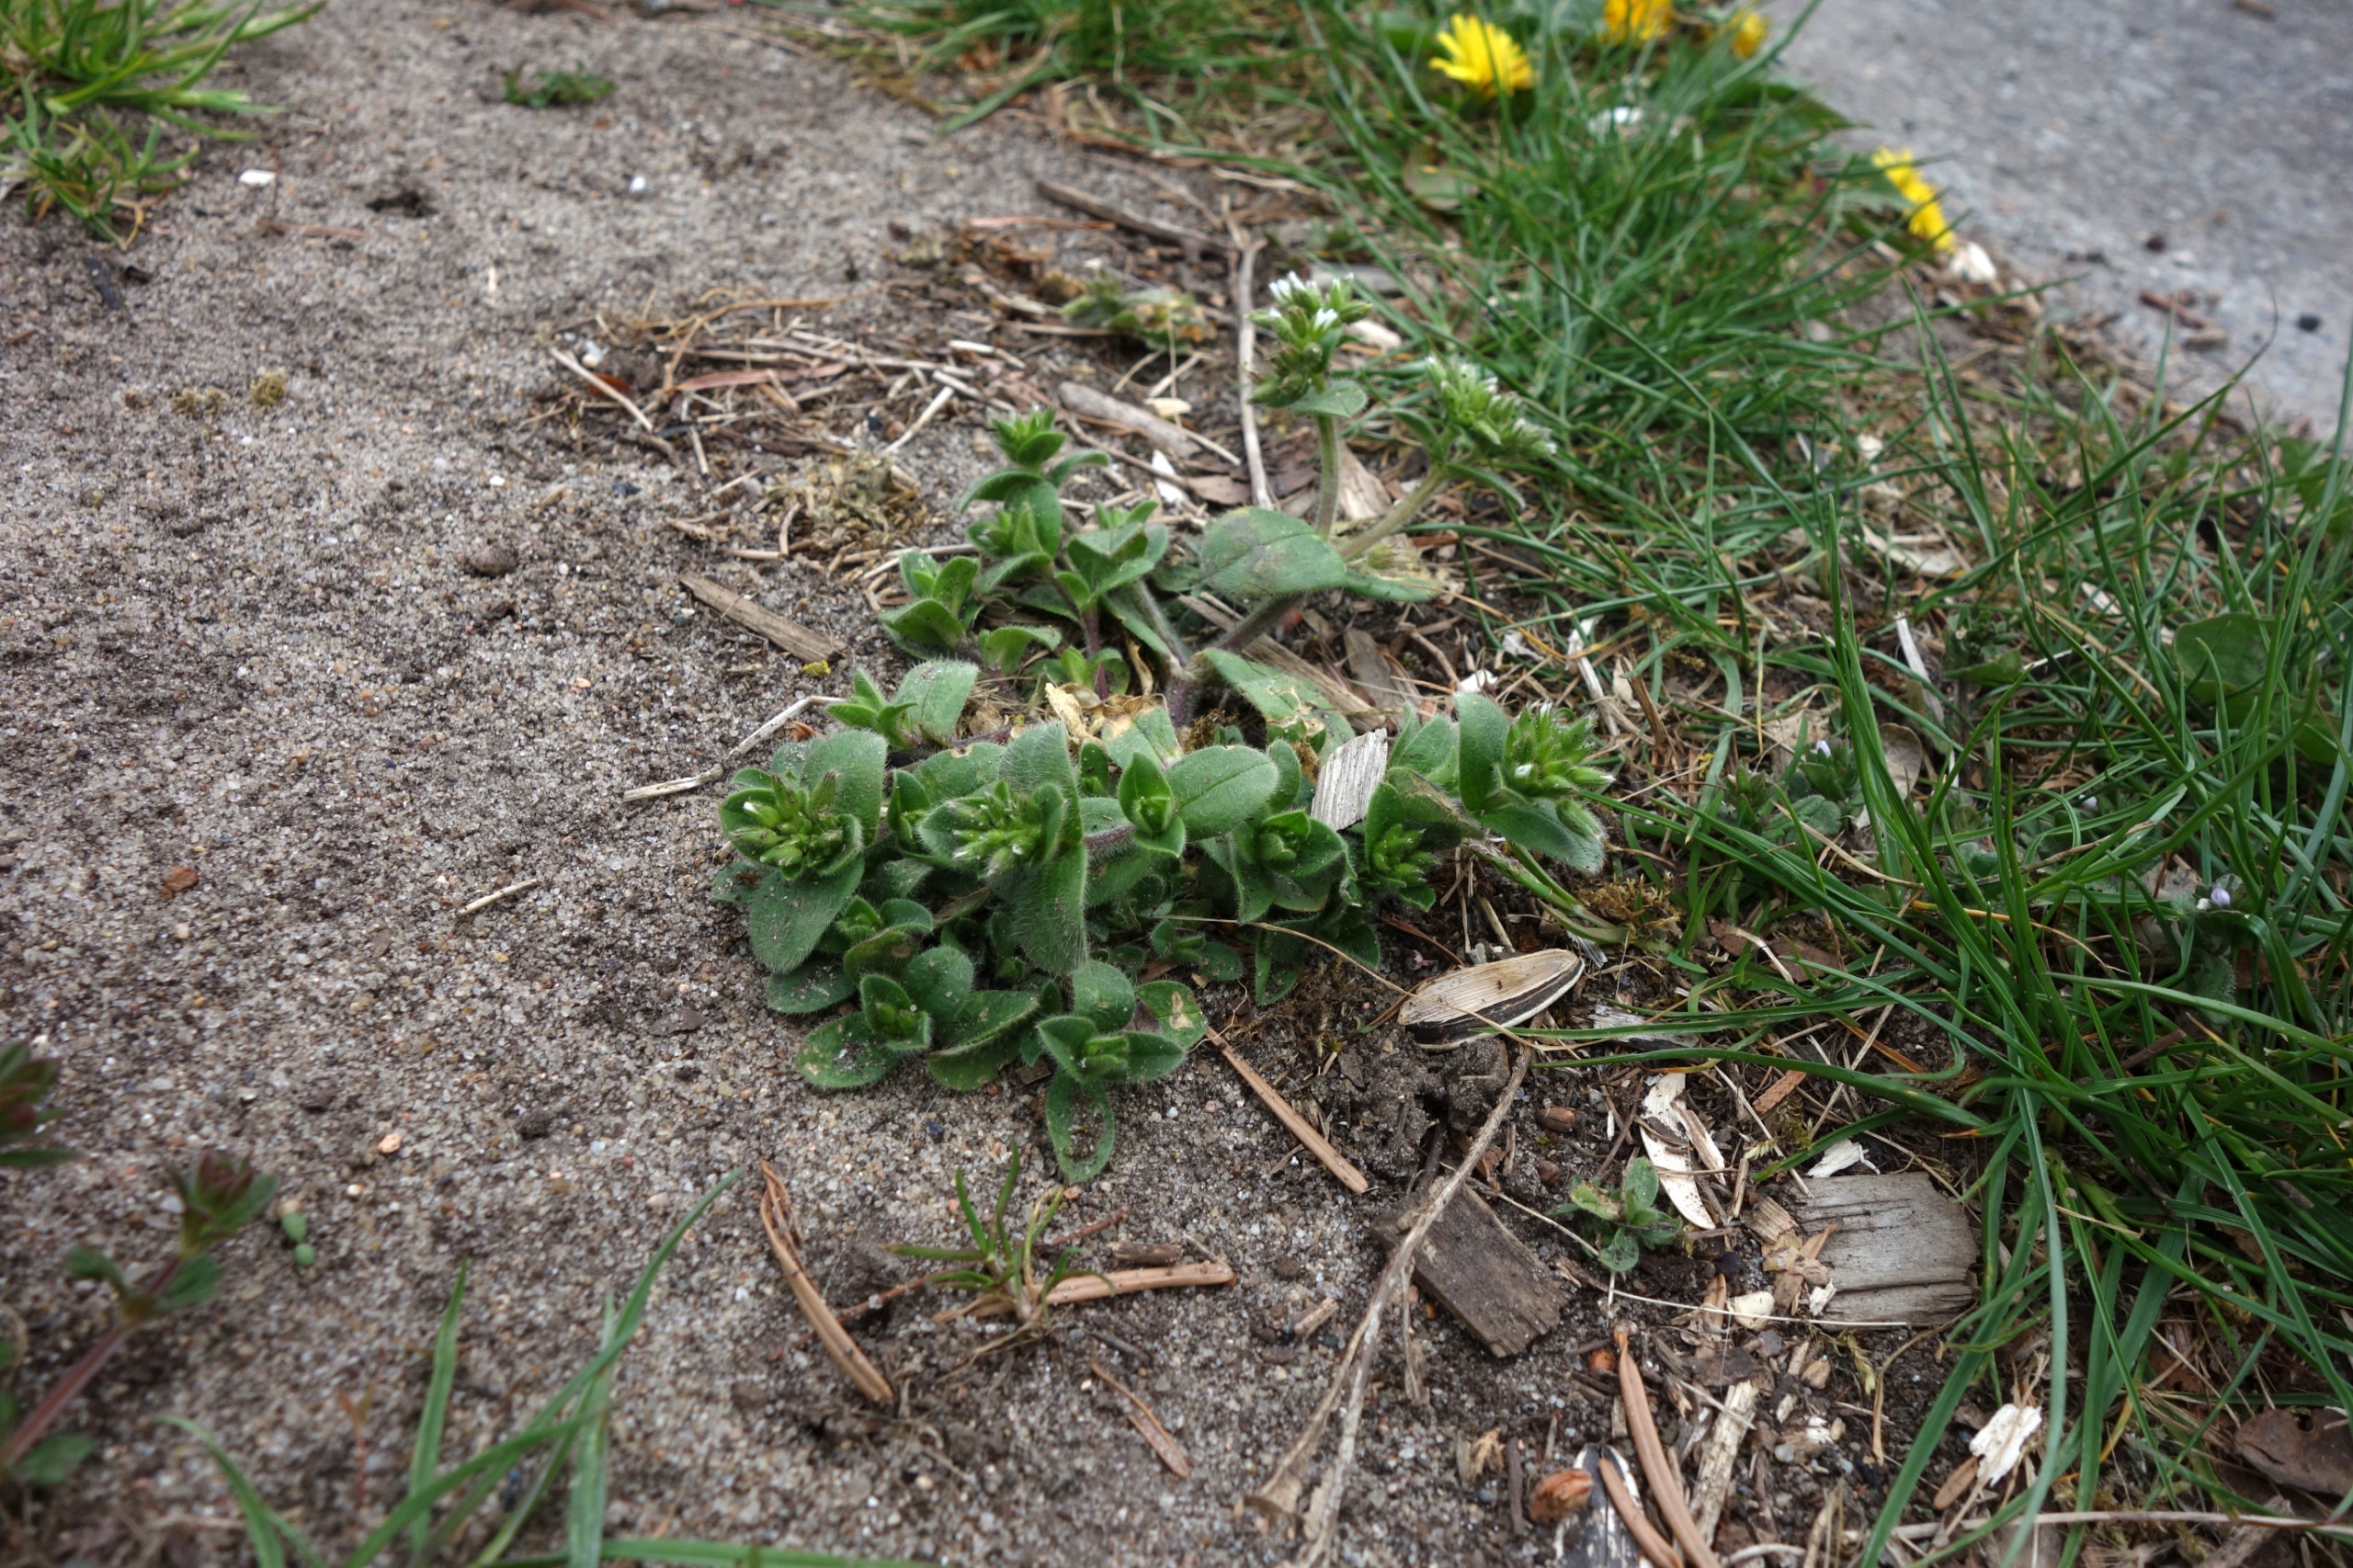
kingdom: Plantae
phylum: Tracheophyta
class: Magnoliopsida
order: Caryophyllales
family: Caryophyllaceae
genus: Cerastium
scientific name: Cerastium glomeratum
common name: Opret hønsetarm
